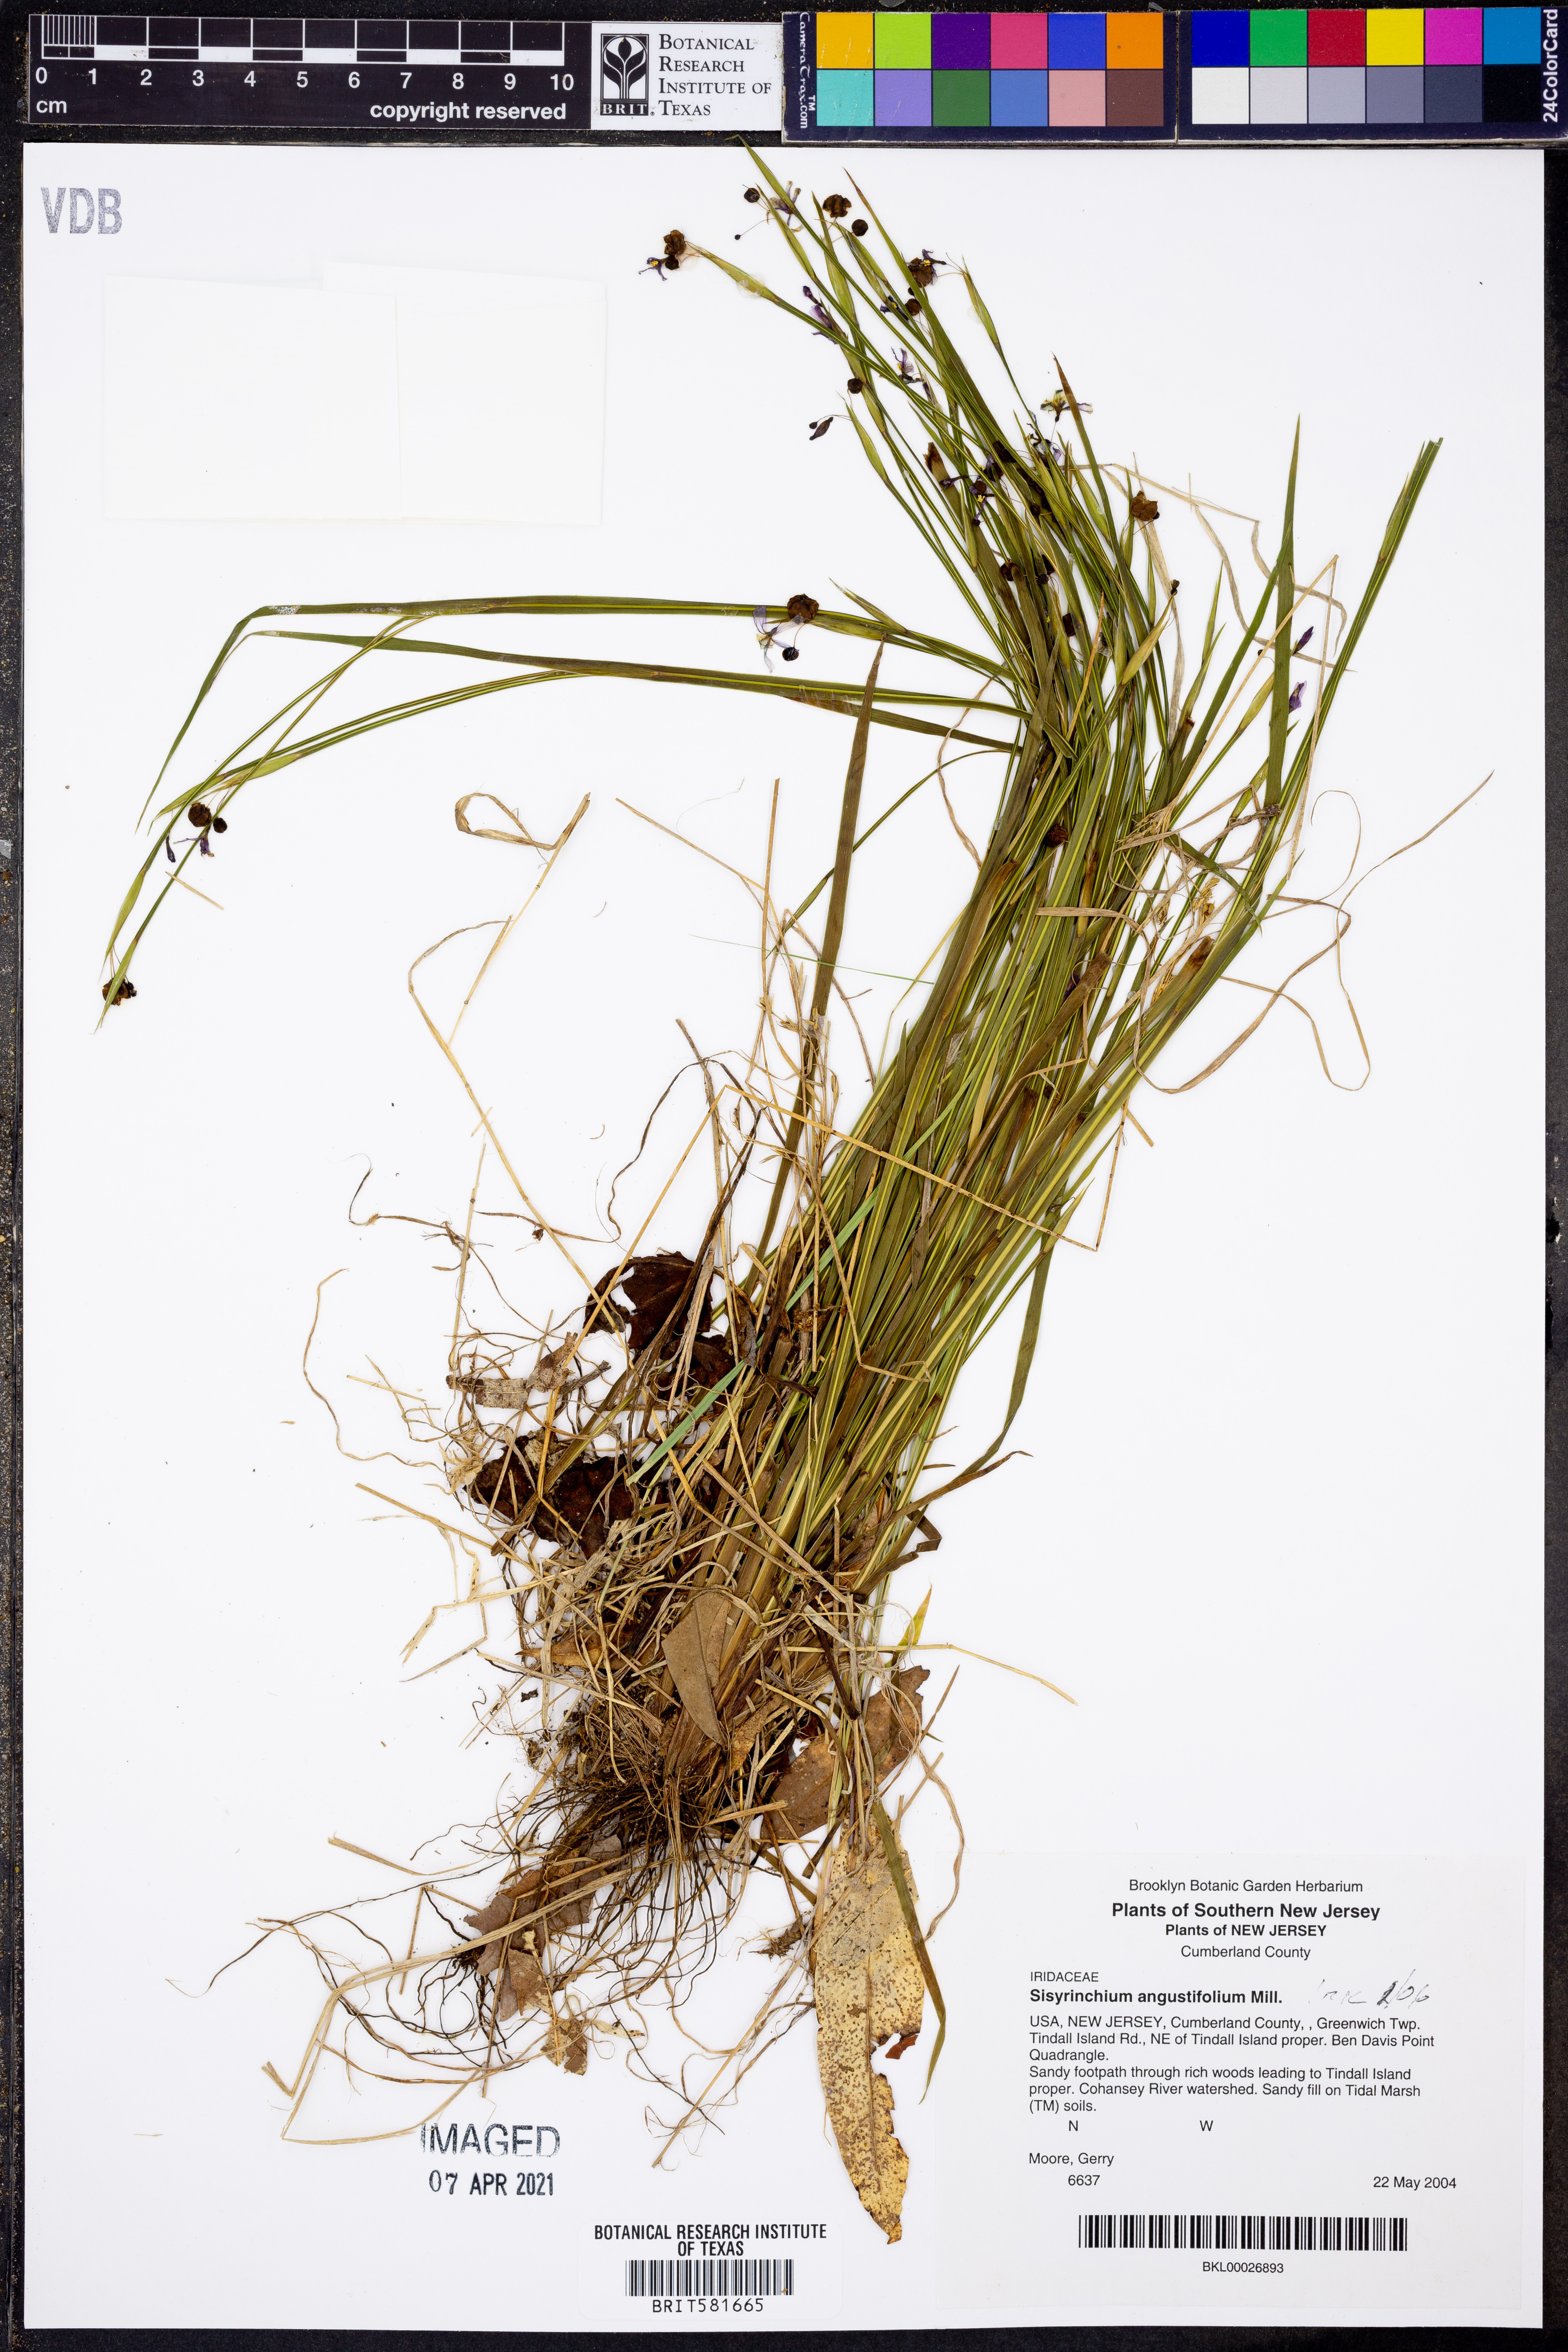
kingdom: Plantae
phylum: Tracheophyta
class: Liliopsida
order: Asparagales
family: Iridaceae
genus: Sisyrinchium
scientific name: Sisyrinchium angustifolium
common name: Narrow-leaf blue-eyed-grass
